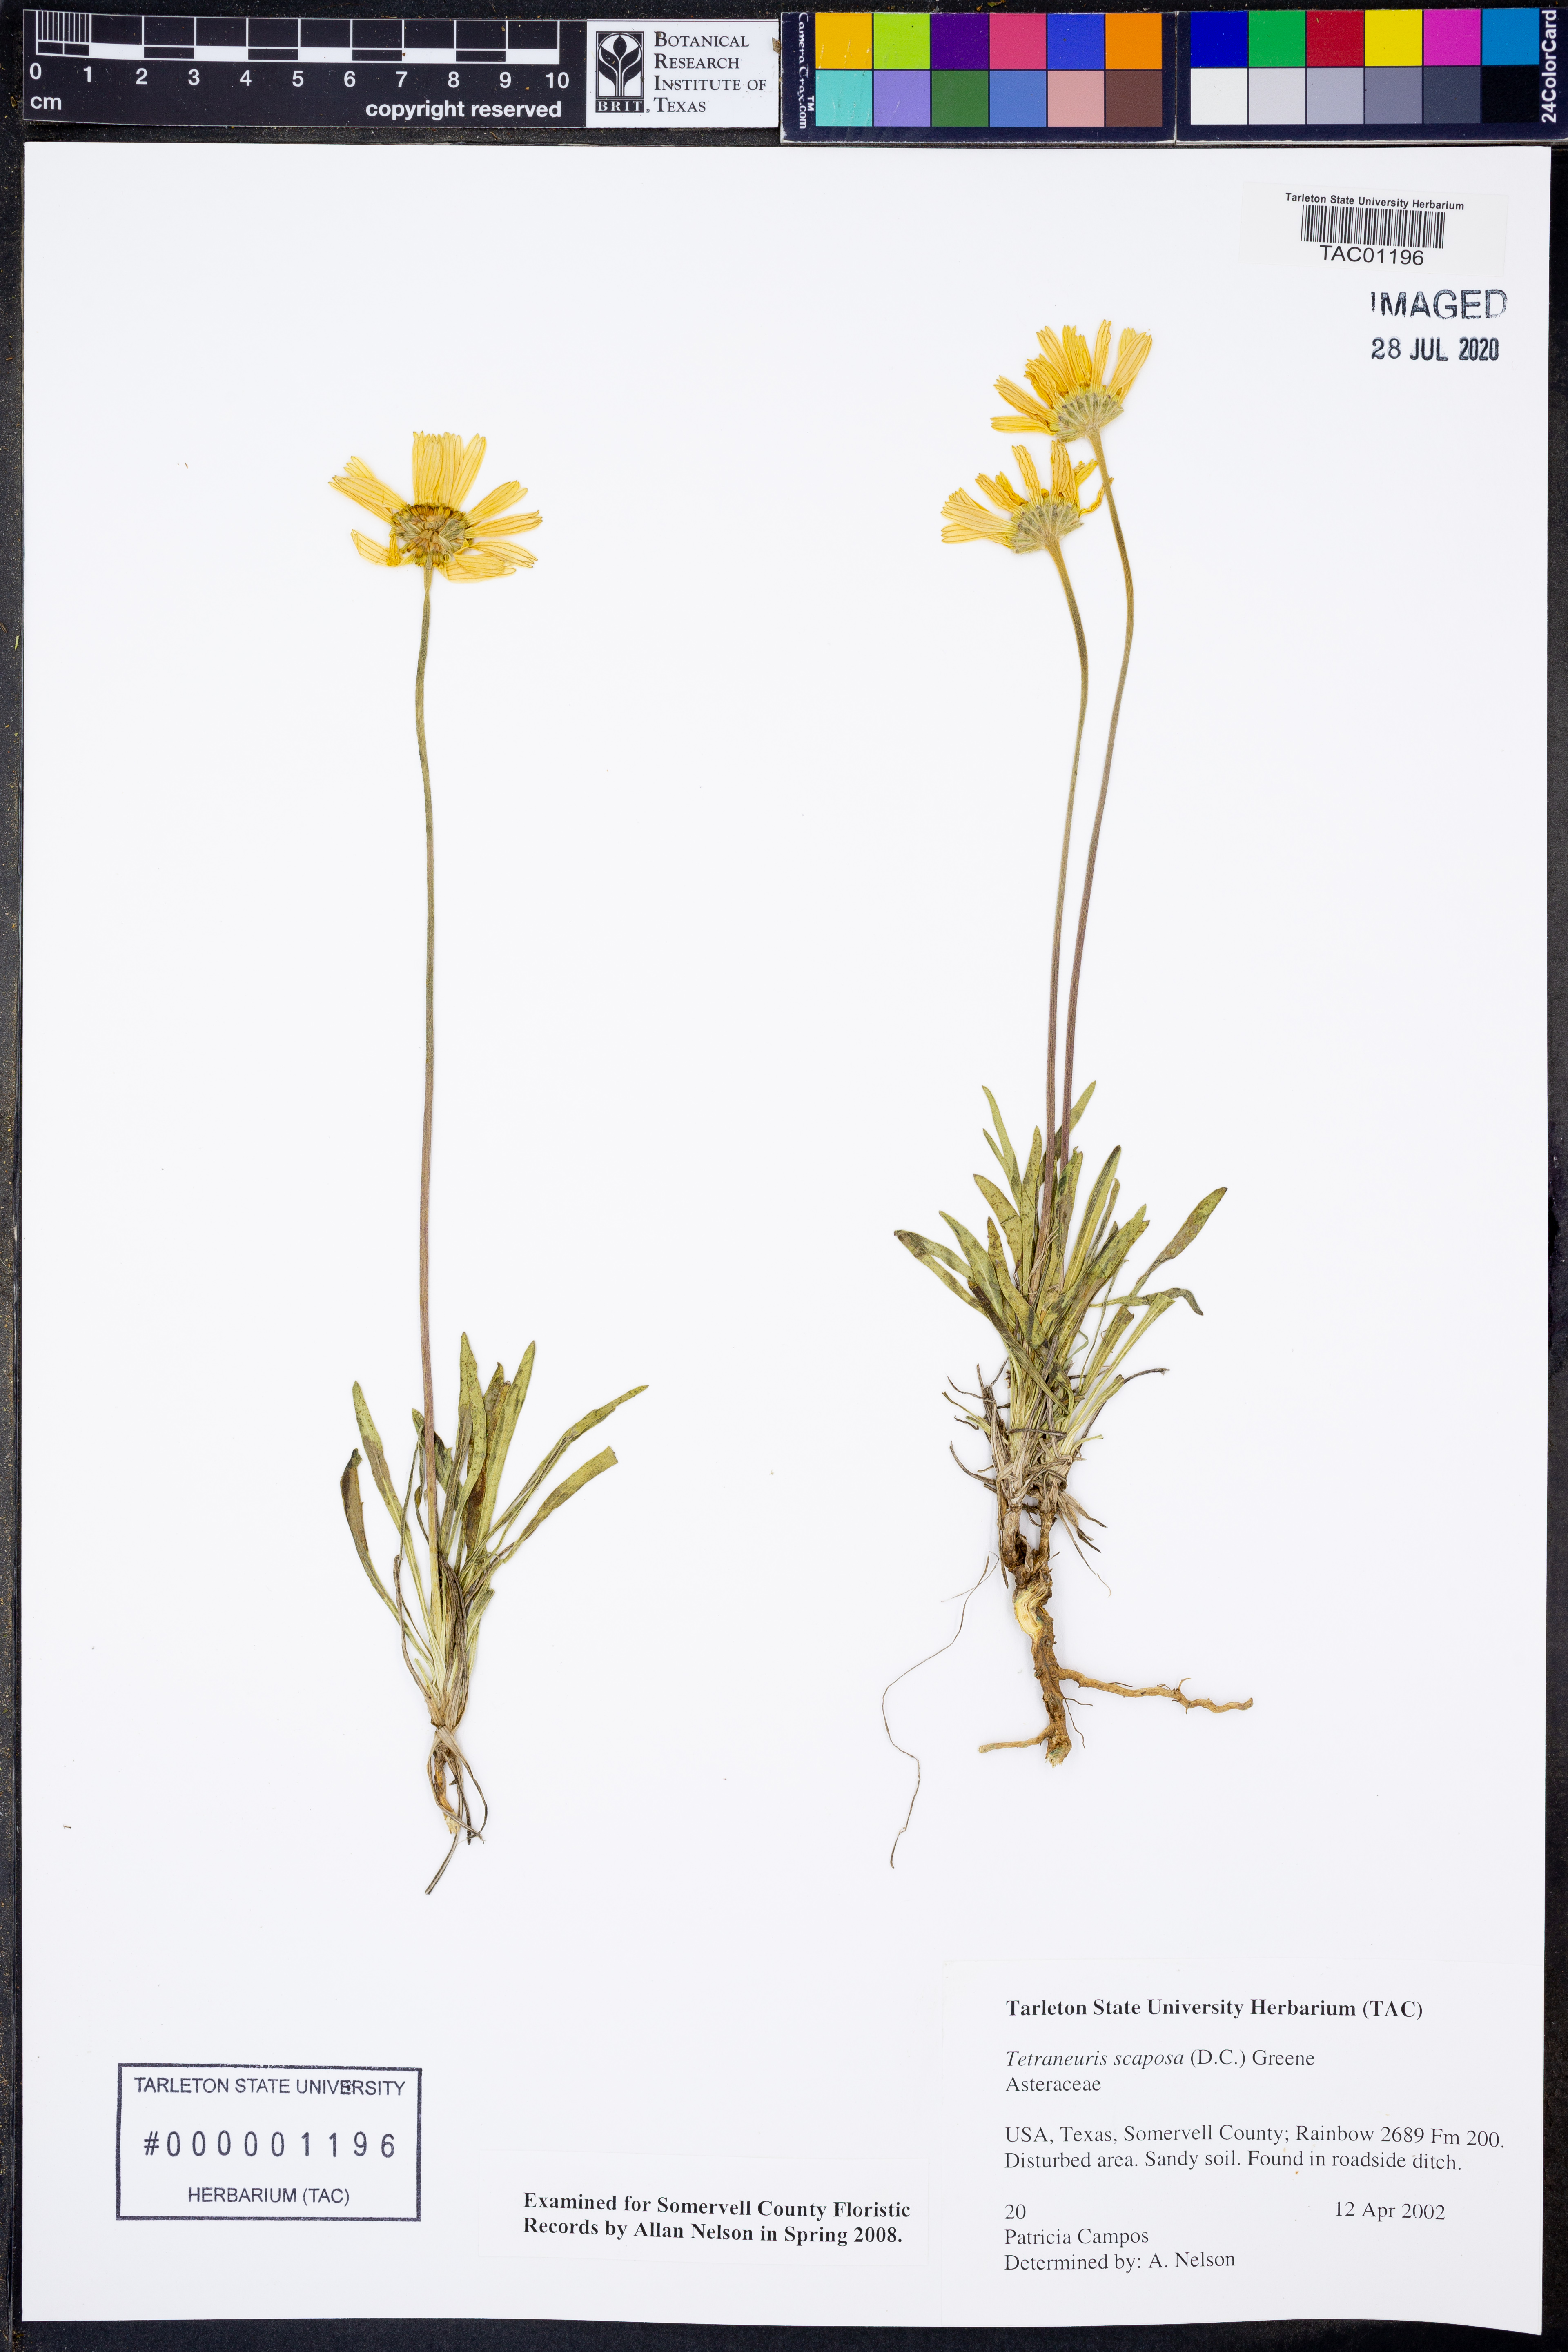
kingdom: Plantae
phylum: Tracheophyta
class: Magnoliopsida
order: Asterales
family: Asteraceae
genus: Tetraneuris
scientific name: Tetraneuris scaposa
